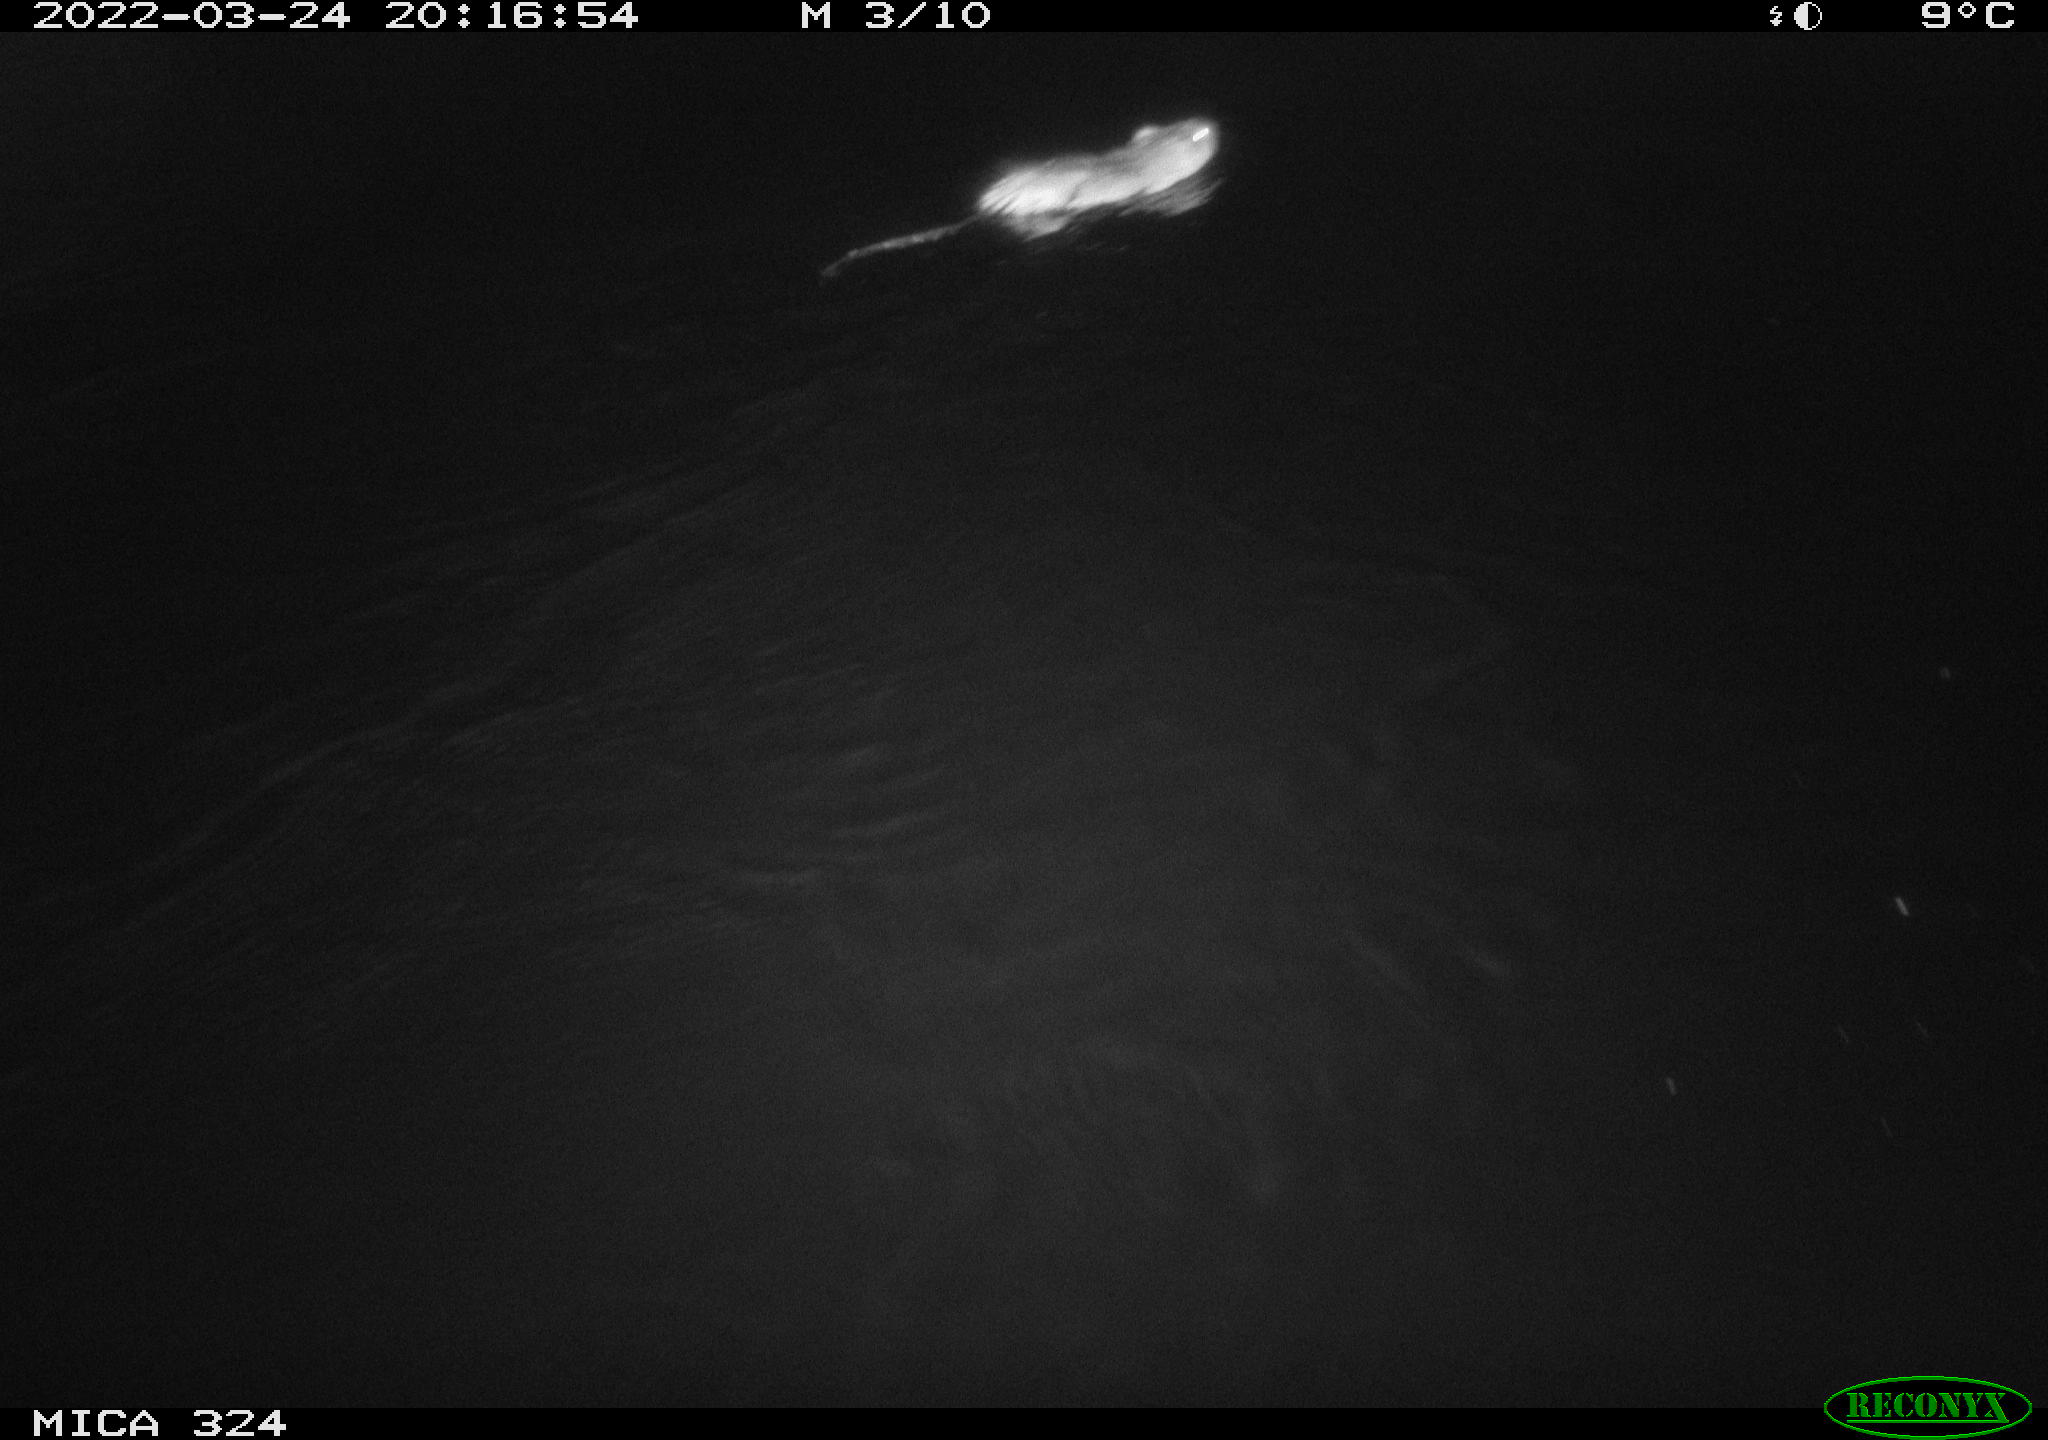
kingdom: Animalia
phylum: Chordata
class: Mammalia
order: Rodentia
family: Cricetidae
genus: Ondatra
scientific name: Ondatra zibethicus
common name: Muskrat
